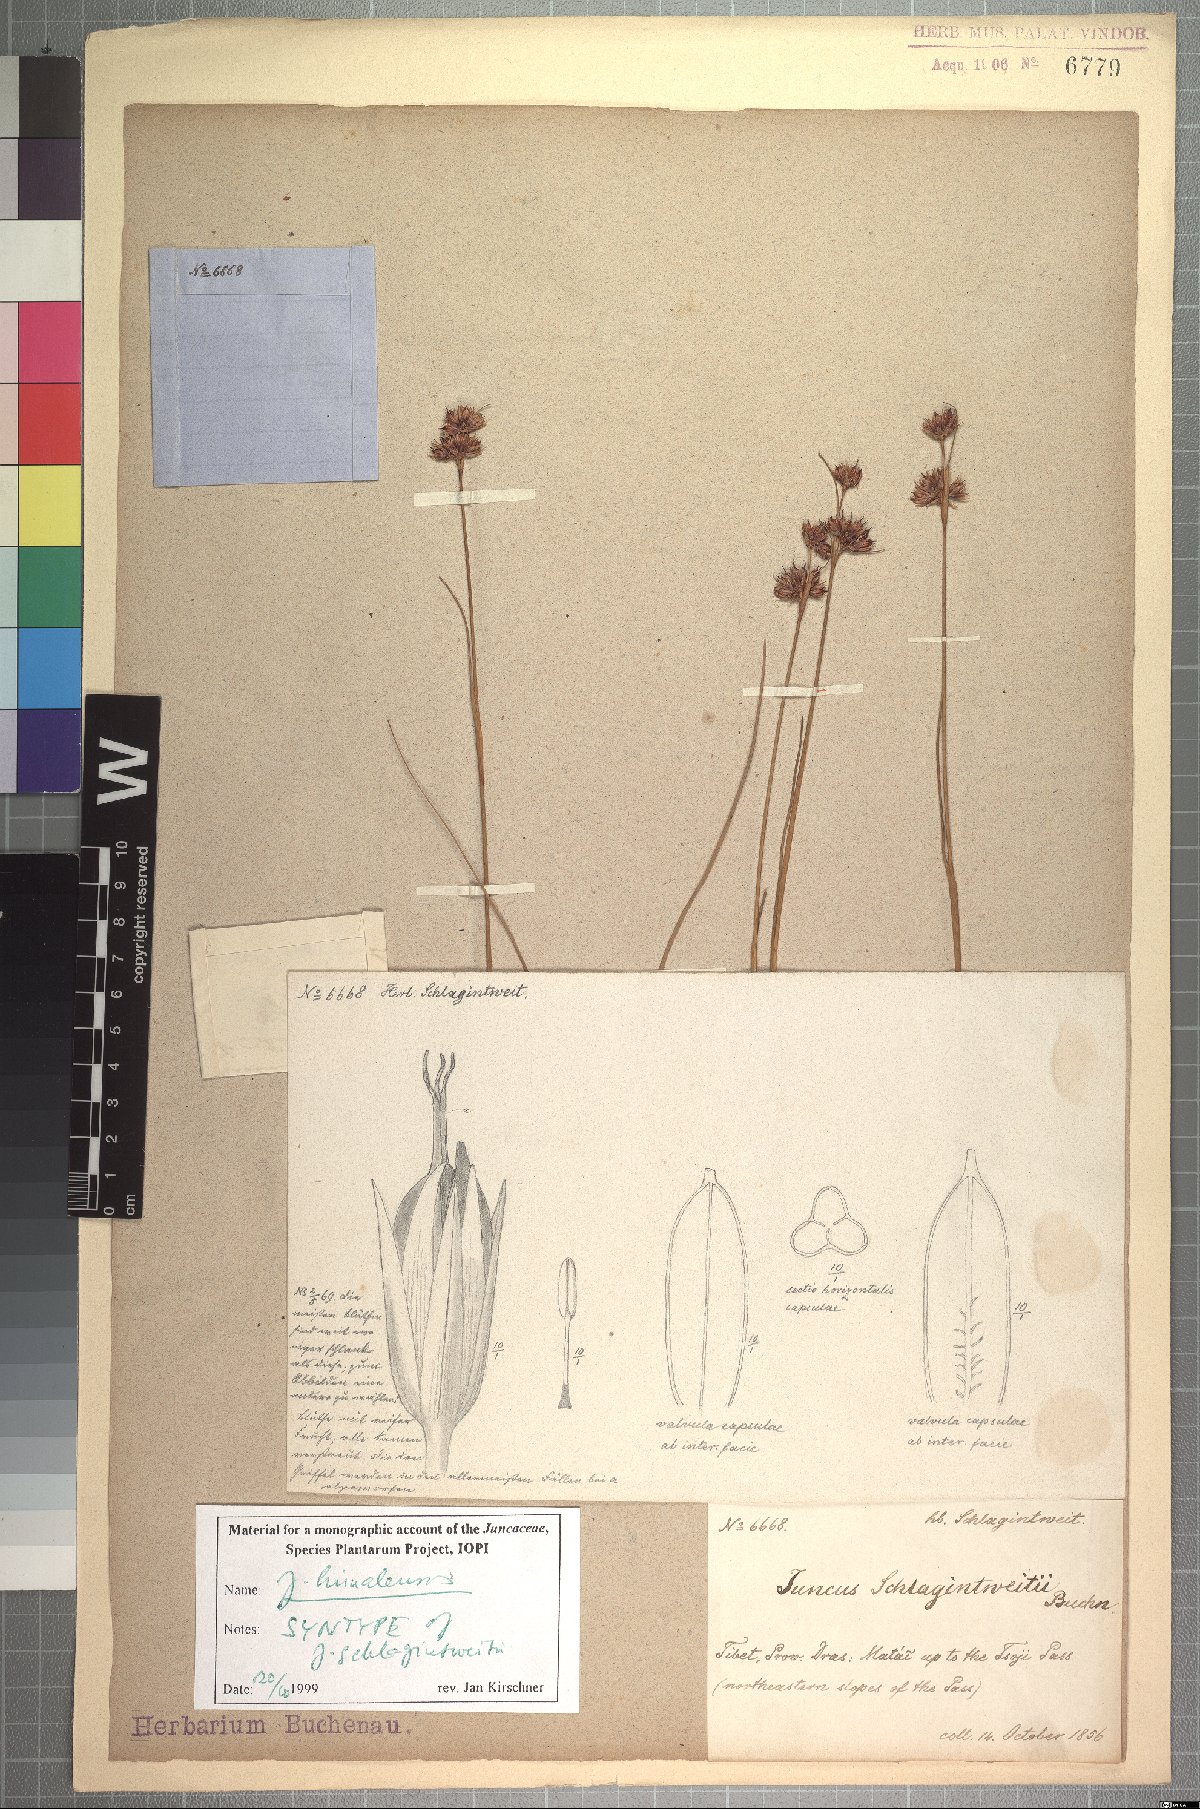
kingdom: Plantae
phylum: Tracheophyta
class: Liliopsida
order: Poales
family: Juncaceae
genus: Juncus
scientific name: Juncus himalensis
